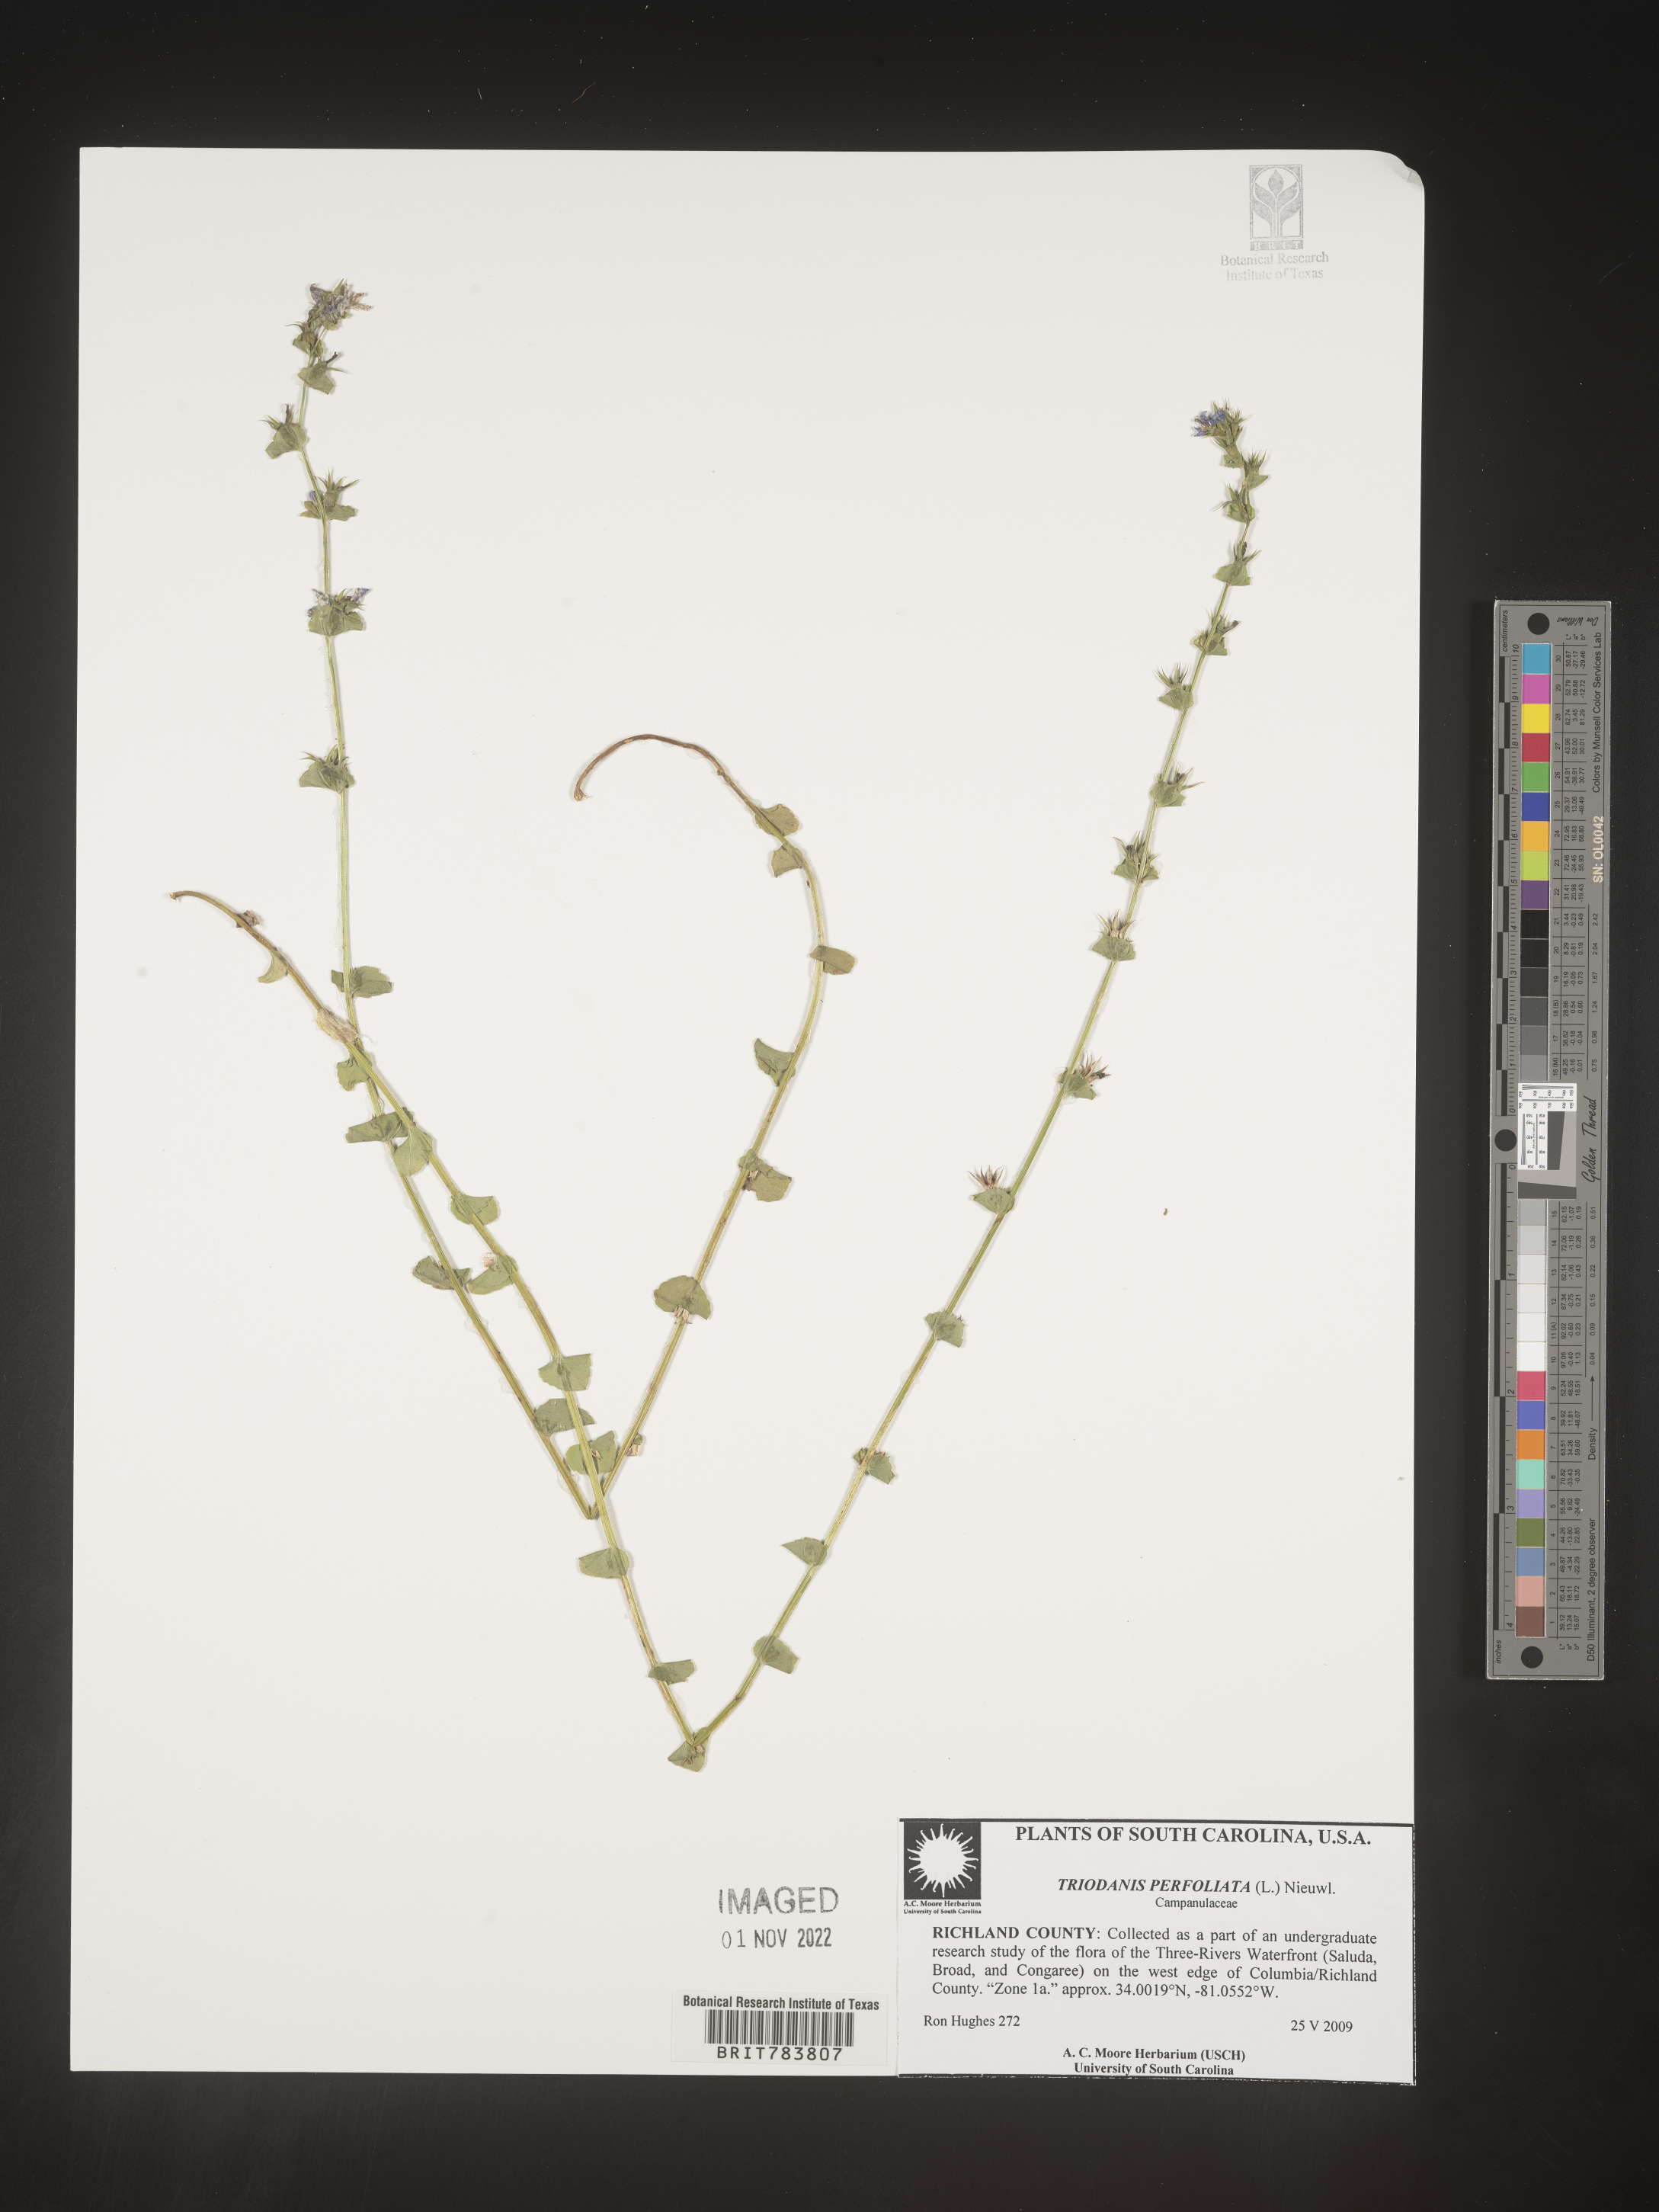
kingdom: Plantae
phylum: Tracheophyta
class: Magnoliopsida
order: Asterales
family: Campanulaceae
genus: Triodanis
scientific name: Triodanis perfoliata
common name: Clasping venus' looking-glass
